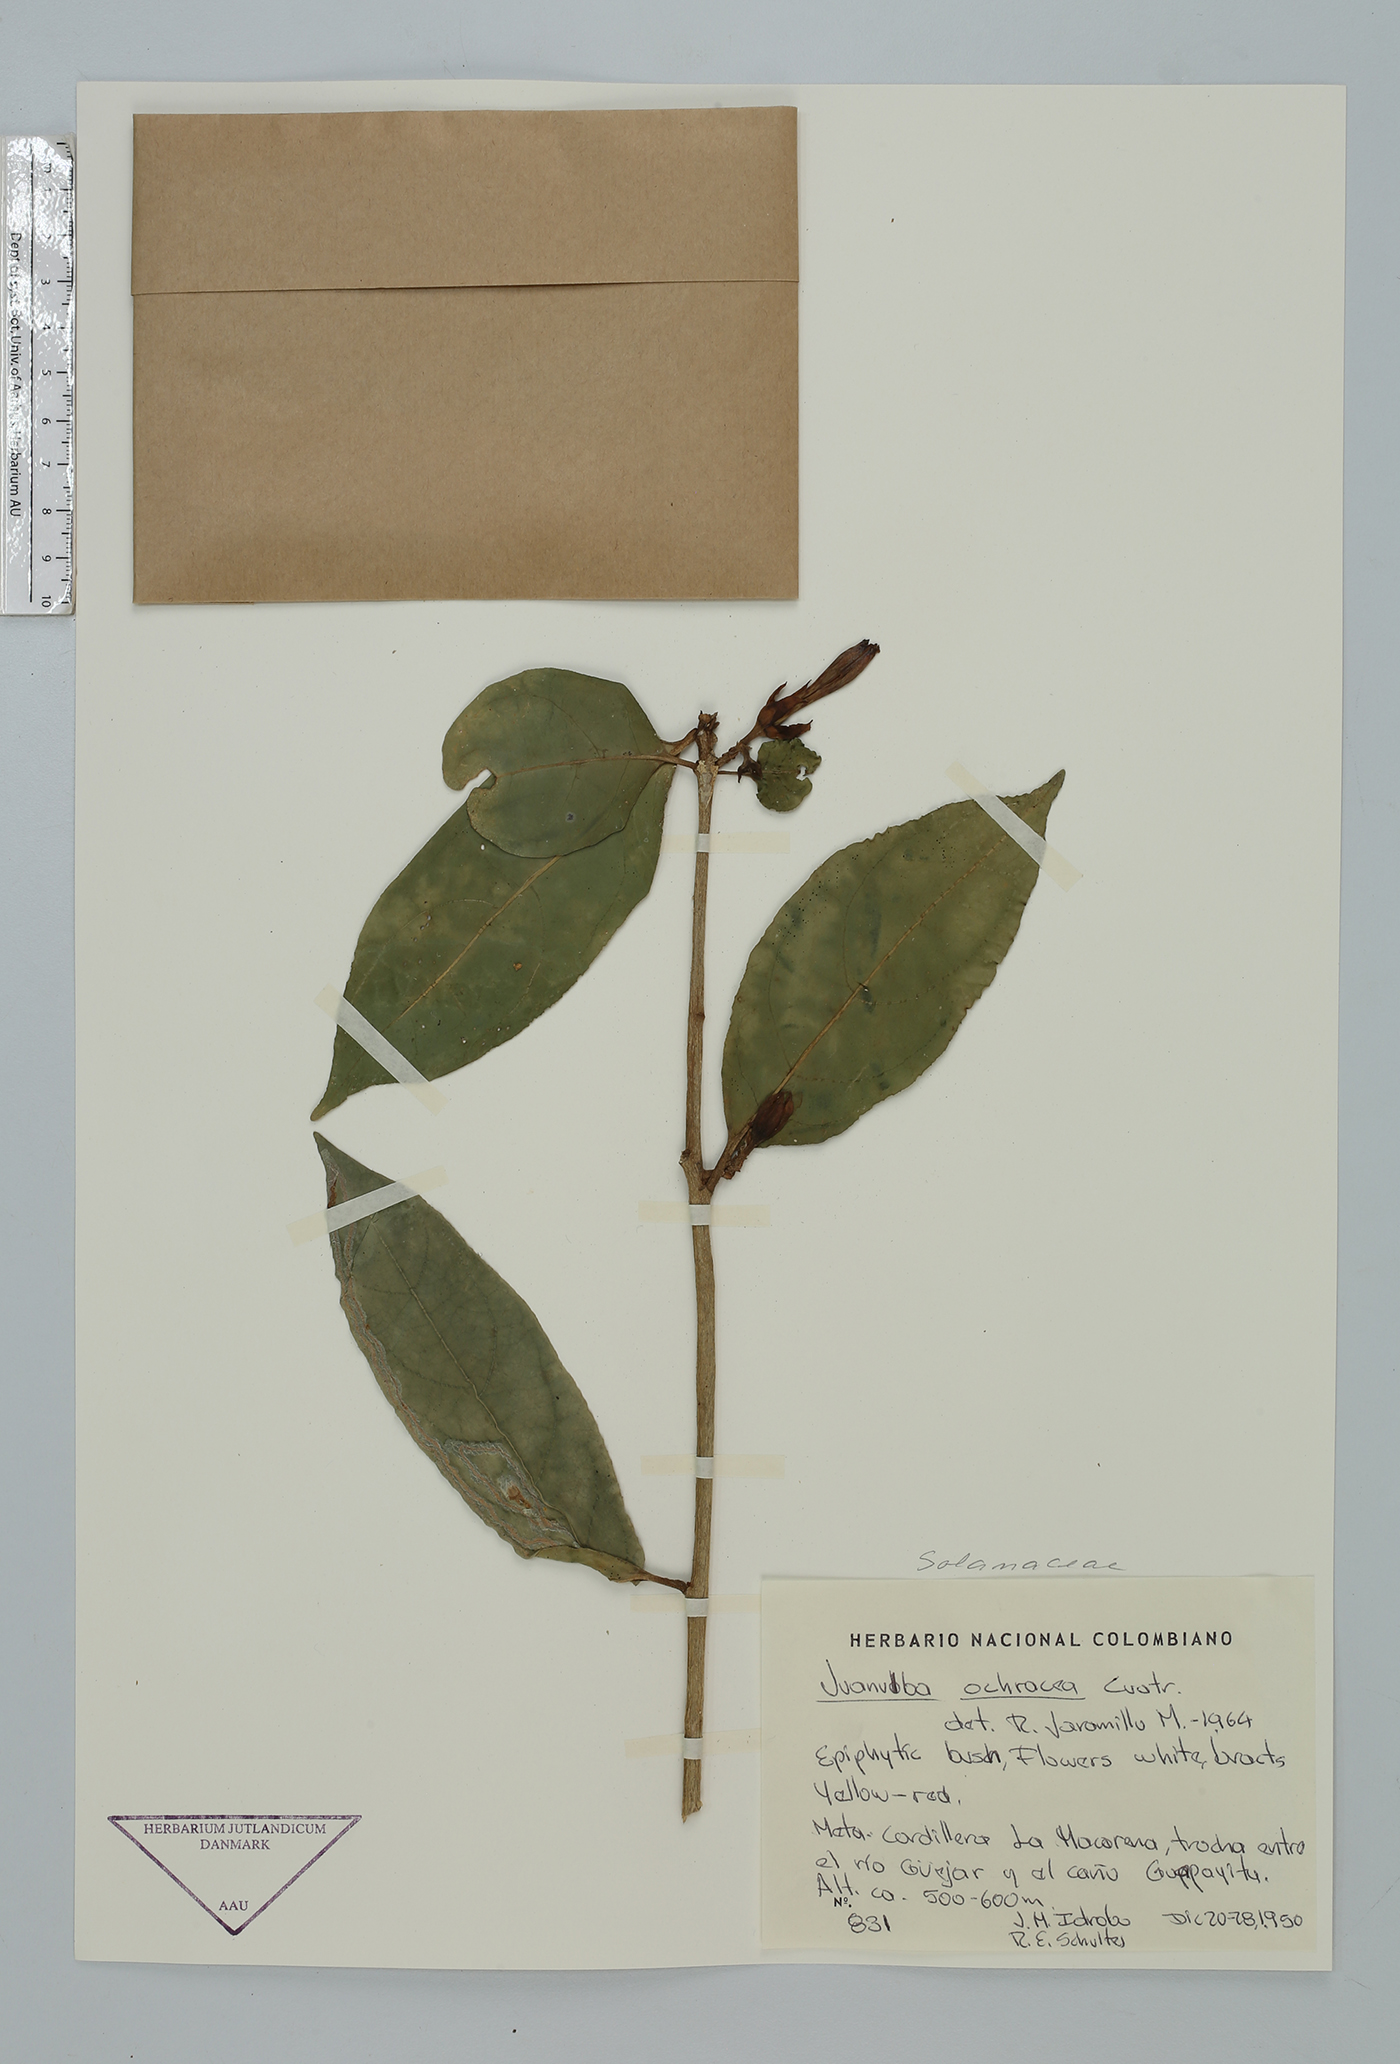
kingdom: Plantae
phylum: Tracheophyta
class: Magnoliopsida
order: Solanales
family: Solanaceae
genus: Hawkesiophyton
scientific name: Hawkesiophyton ochraceum
